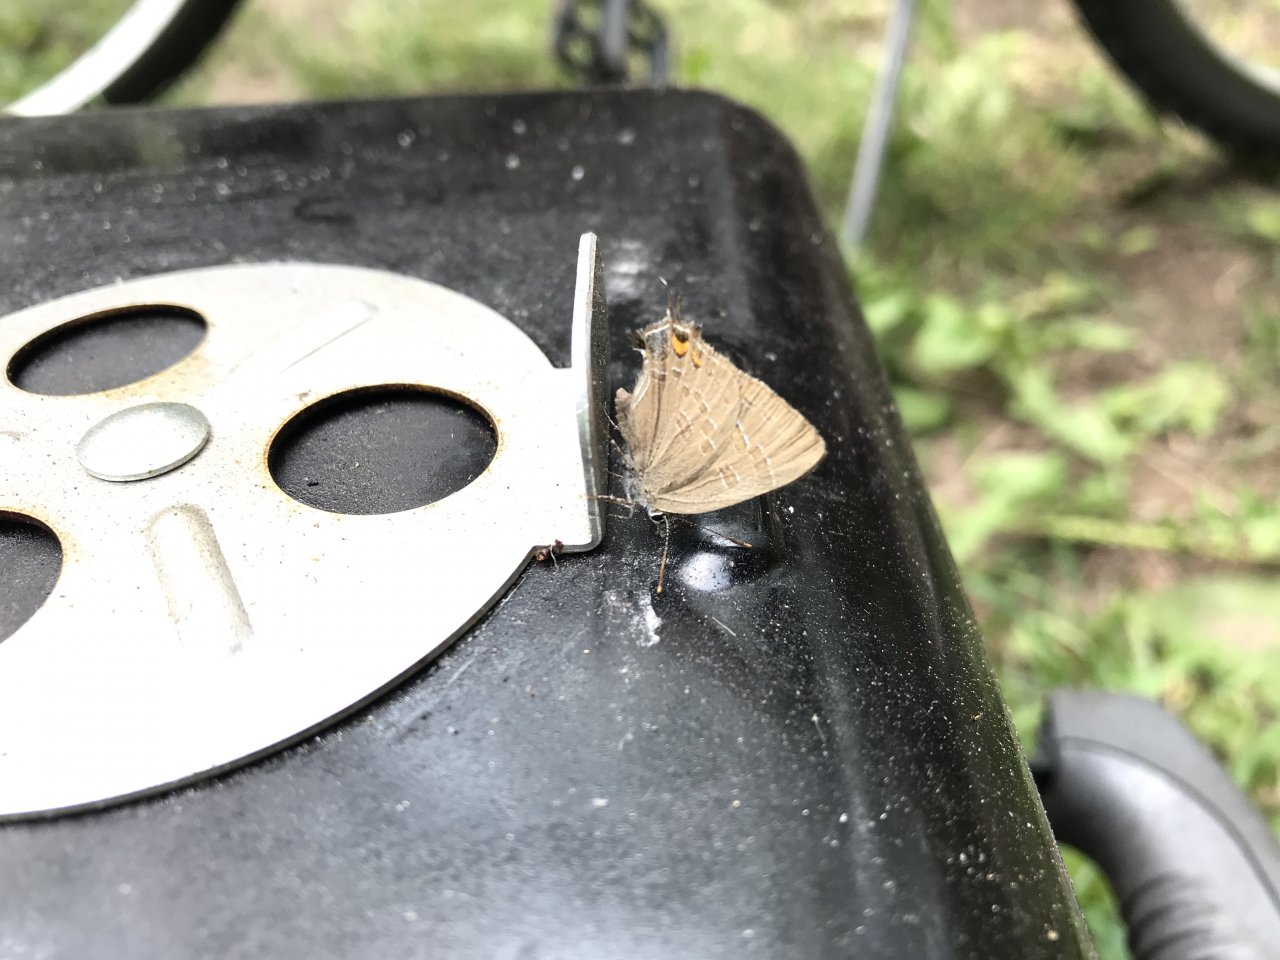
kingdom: Animalia
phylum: Arthropoda
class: Insecta
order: Lepidoptera
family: Lycaenidae
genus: Satyrium
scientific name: Satyrium calanus
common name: Banded Hairstreak
